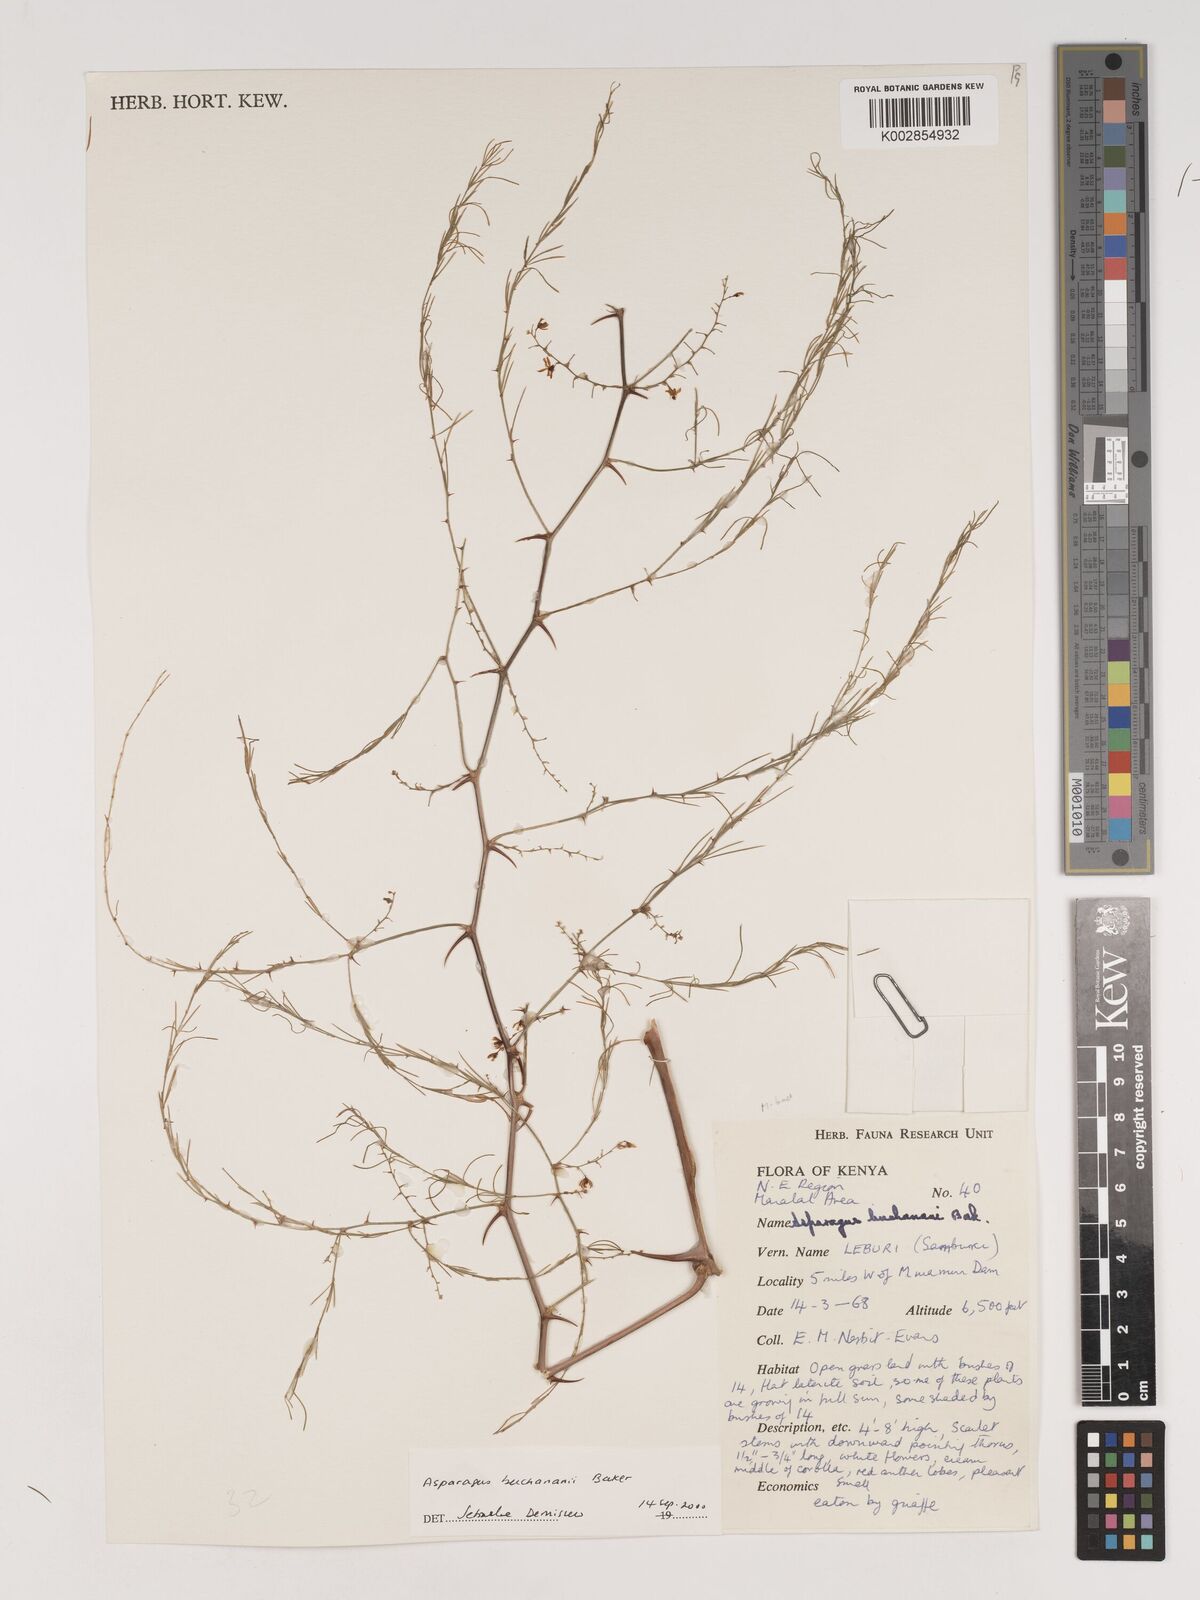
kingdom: Plantae
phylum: Tracheophyta
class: Liliopsida
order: Asparagales
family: Asparagaceae
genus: Asparagus
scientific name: Asparagus buchananii
